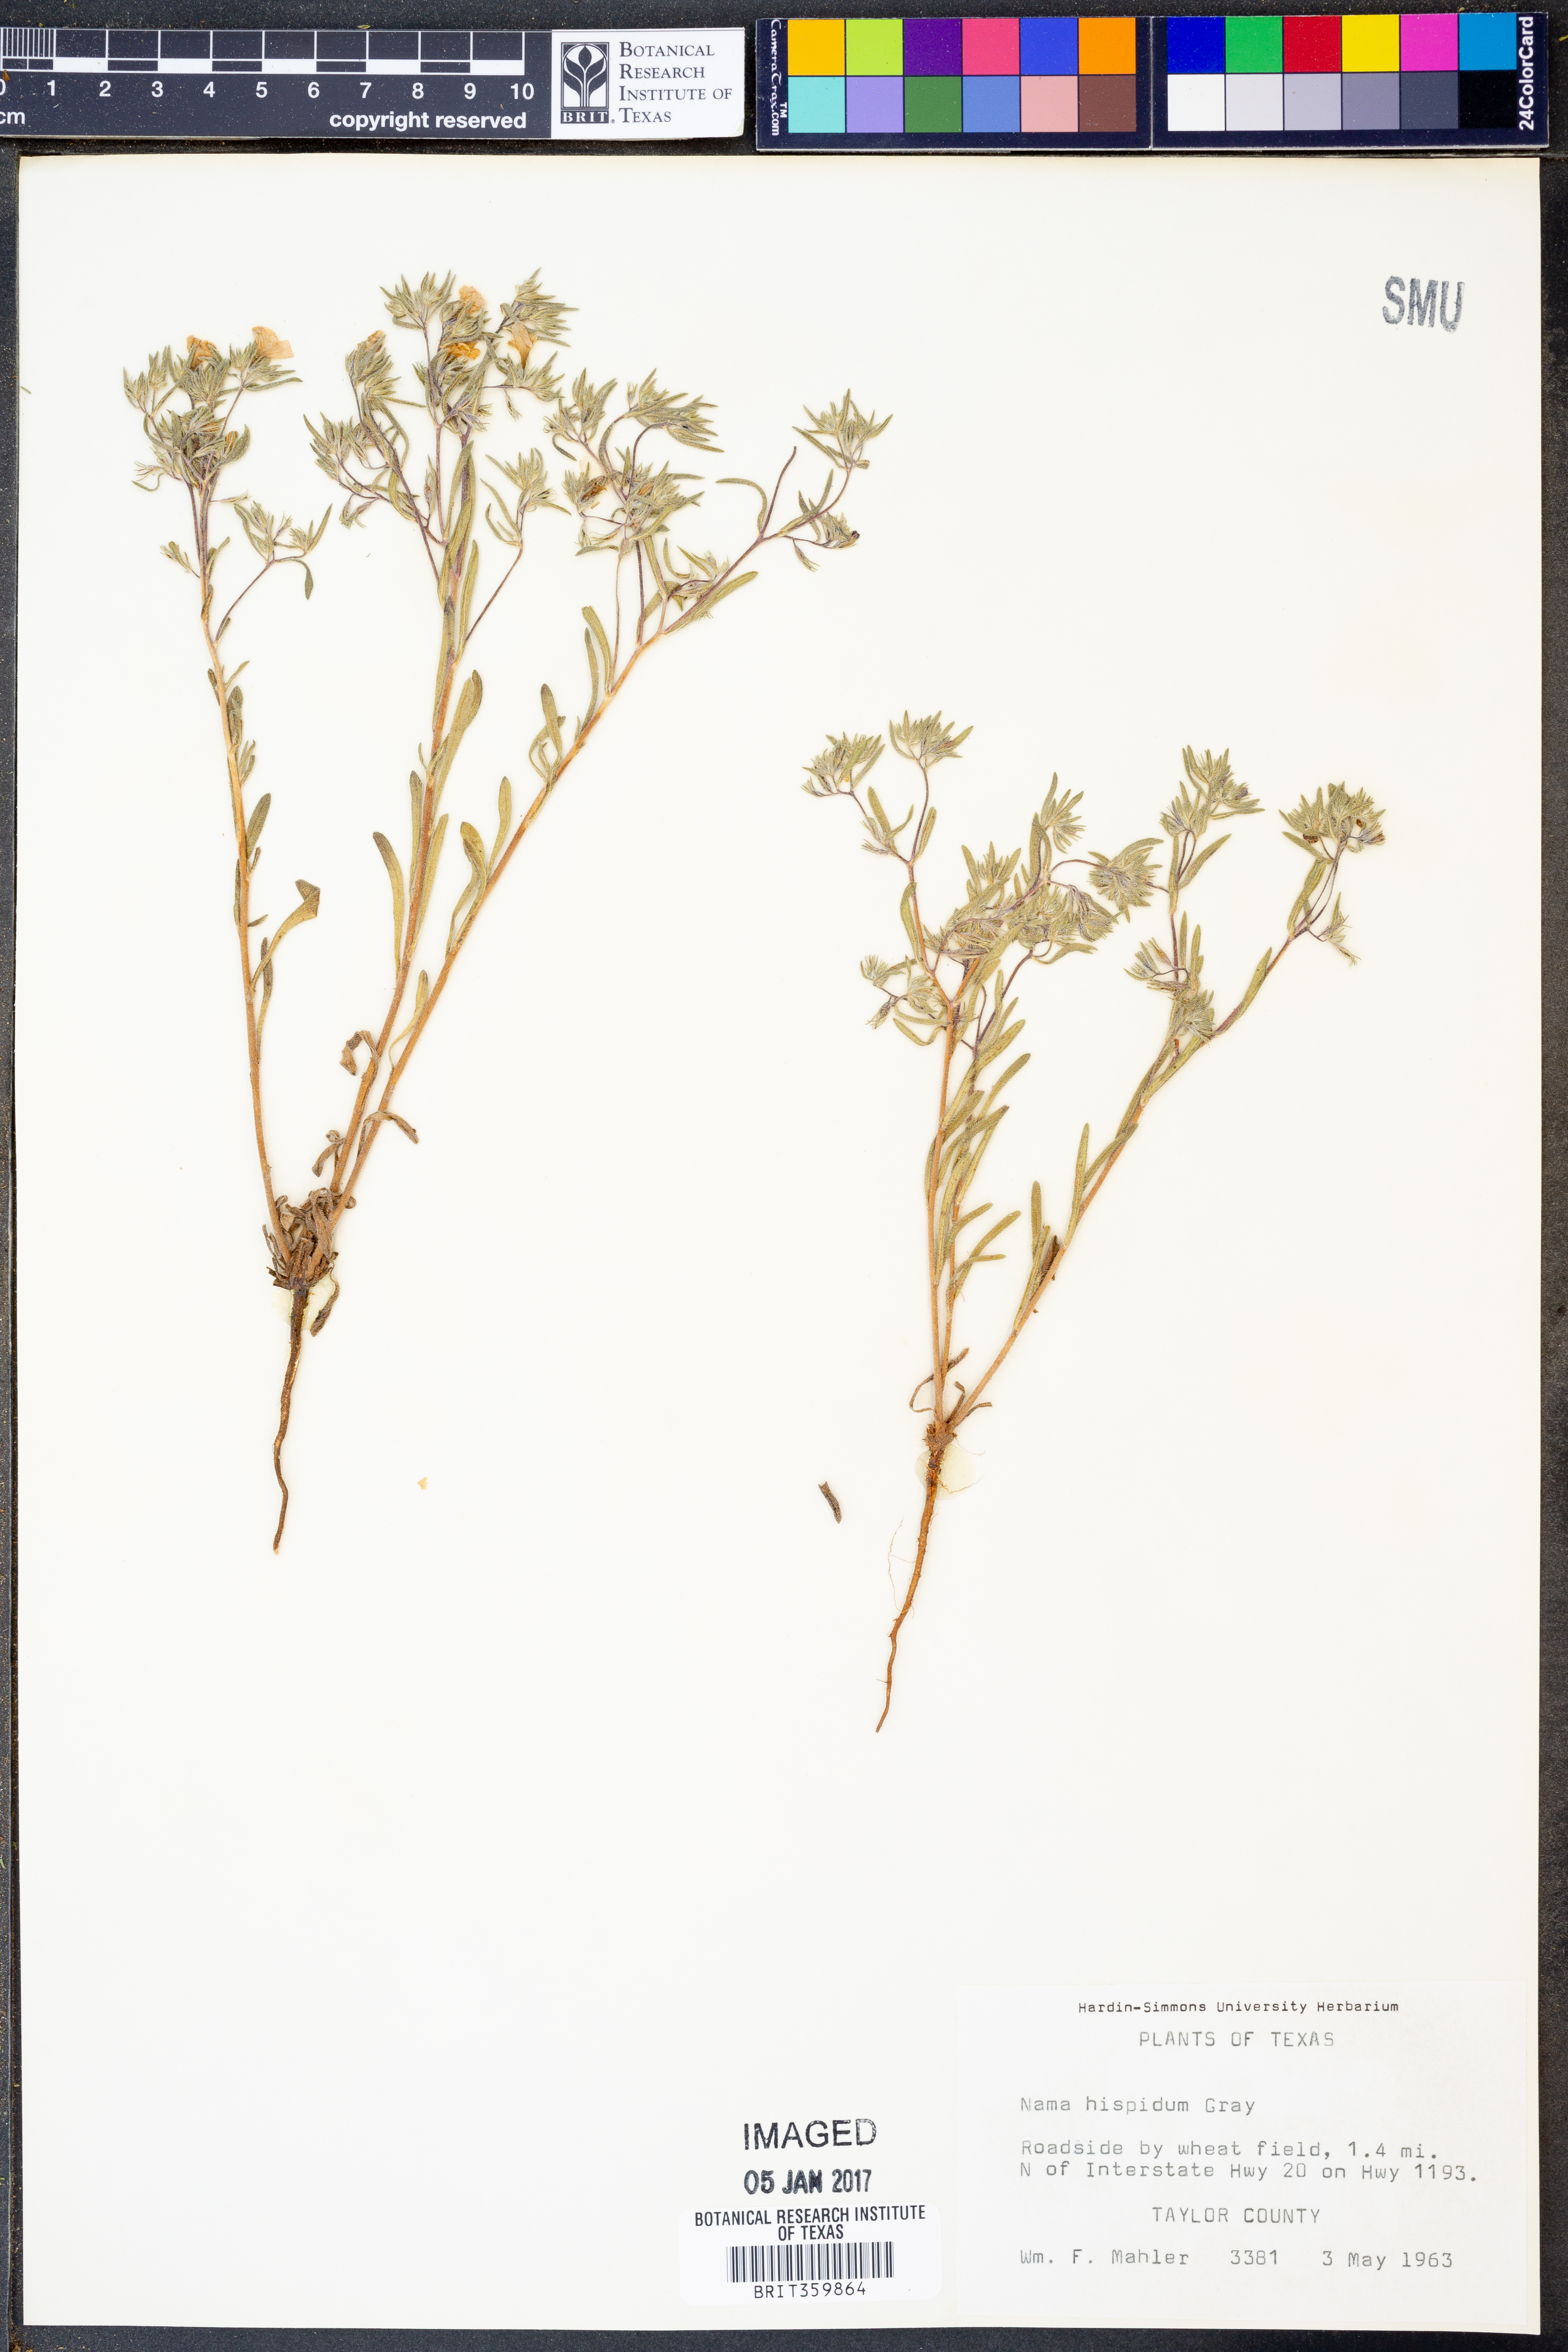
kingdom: Plantae
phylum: Tracheophyta
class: Magnoliopsida
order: Boraginales
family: Namaceae
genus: Nama
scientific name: Nama hispida
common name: Bristly nama
